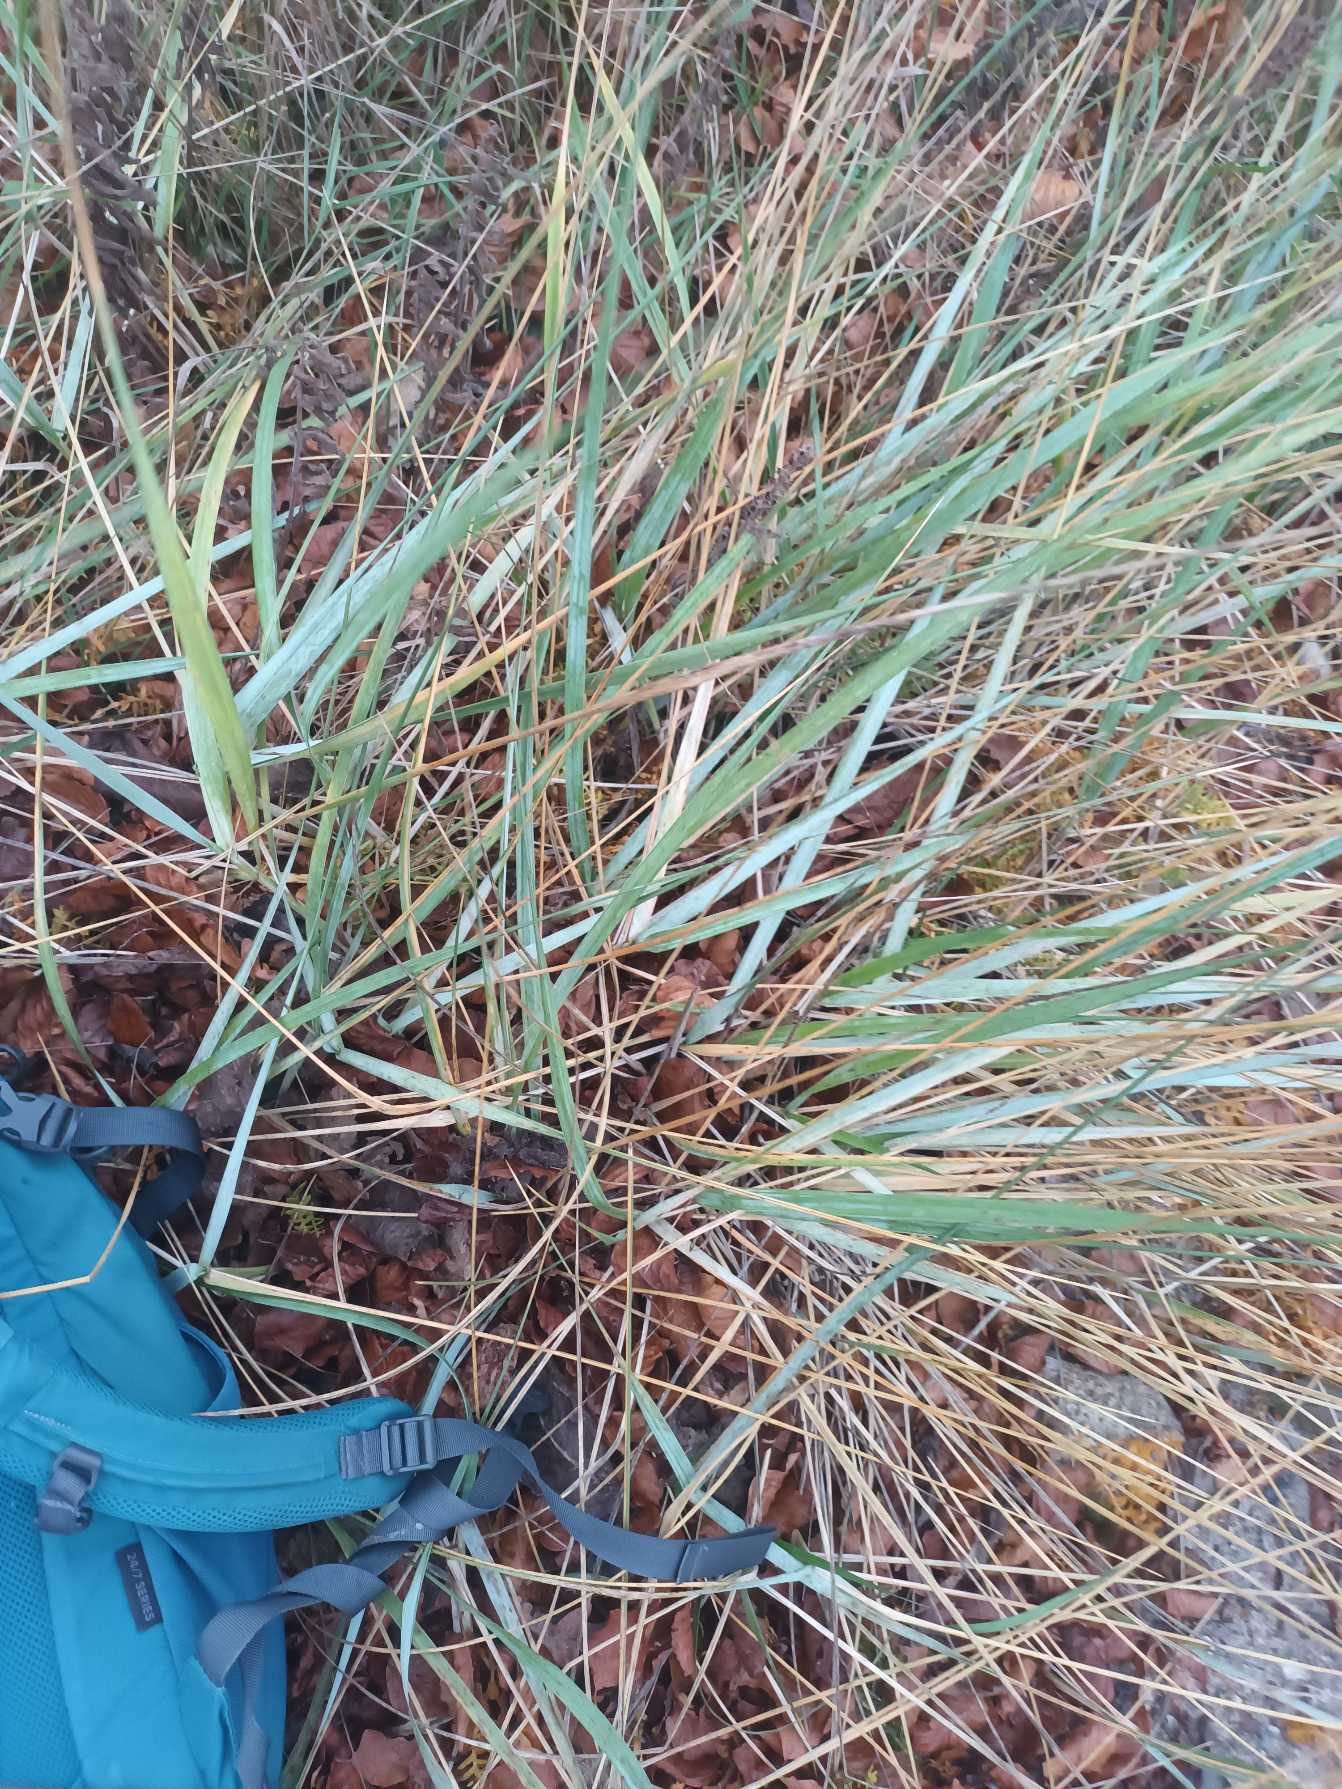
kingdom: Plantae
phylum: Tracheophyta
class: Liliopsida
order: Poales
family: Poaceae
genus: Leymus
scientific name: Leymus arenarius
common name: Marehalm
